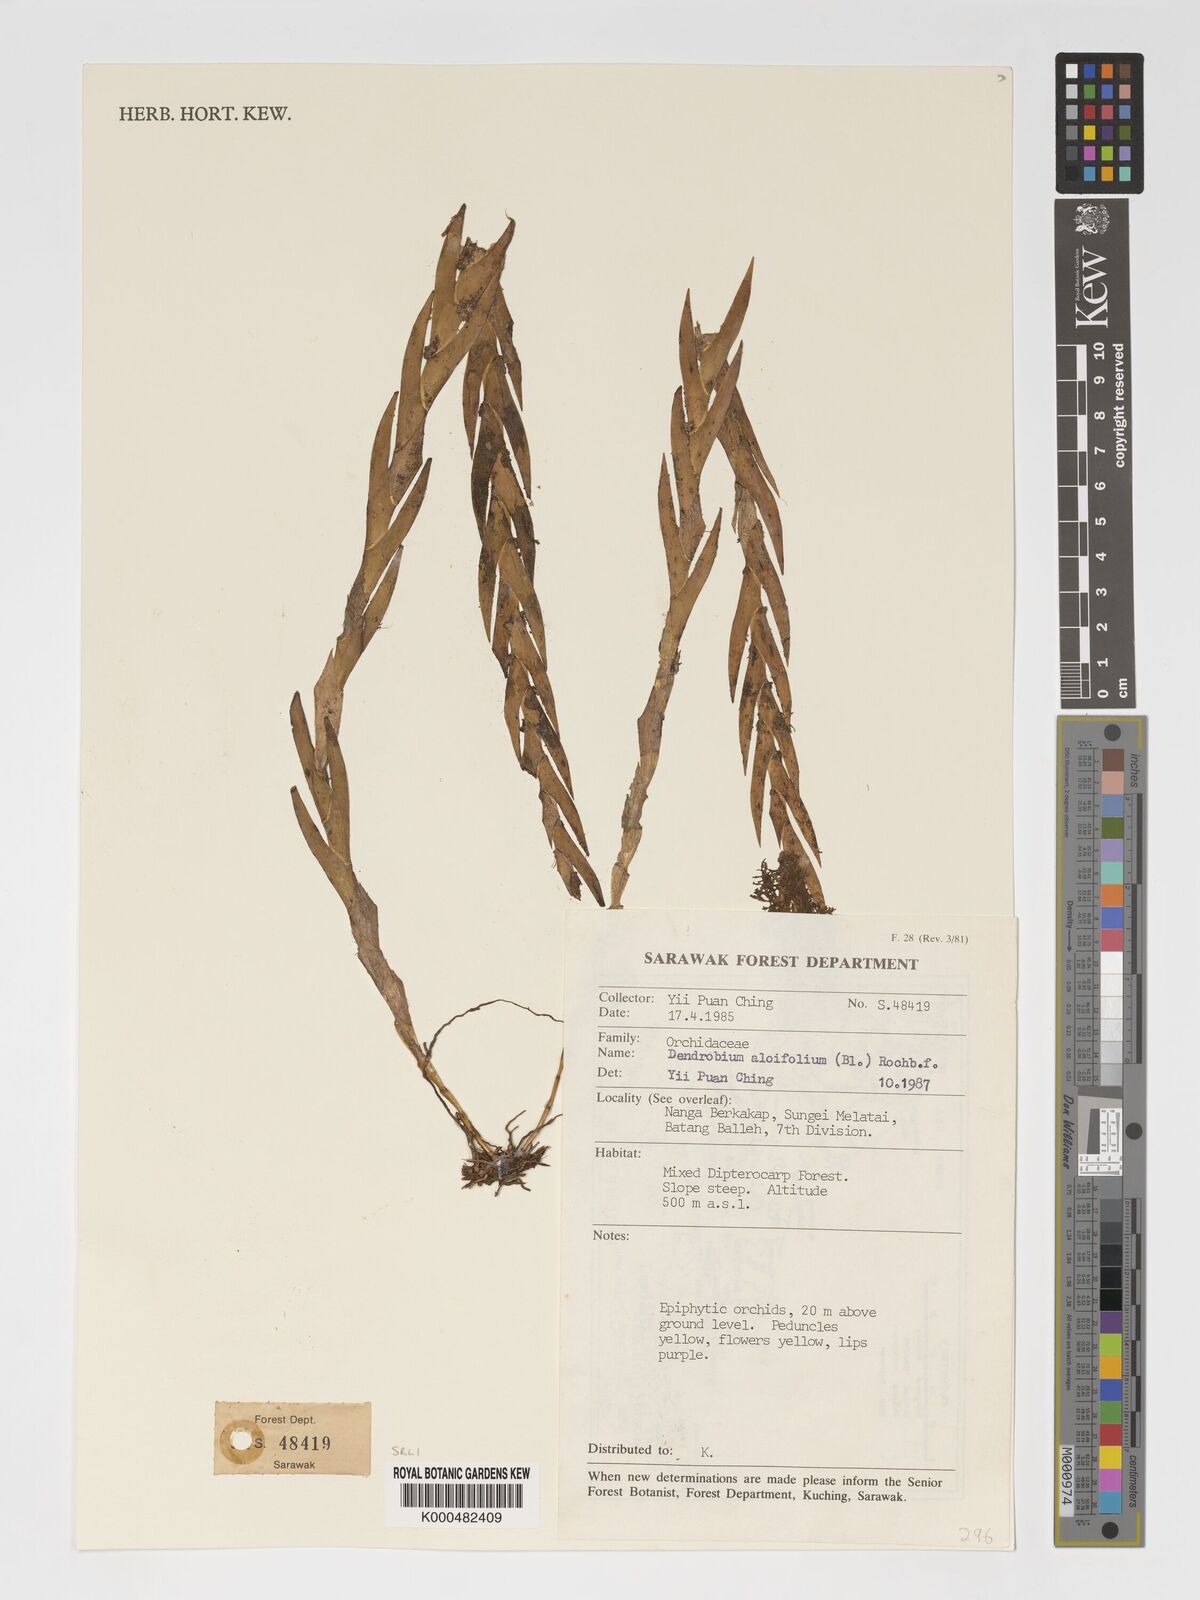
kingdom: Plantae
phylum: Tracheophyta
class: Liliopsida
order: Asparagales
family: Orchidaceae
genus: Dendrobium
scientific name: Dendrobium aloifolium
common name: Aloe-like dendrobium
